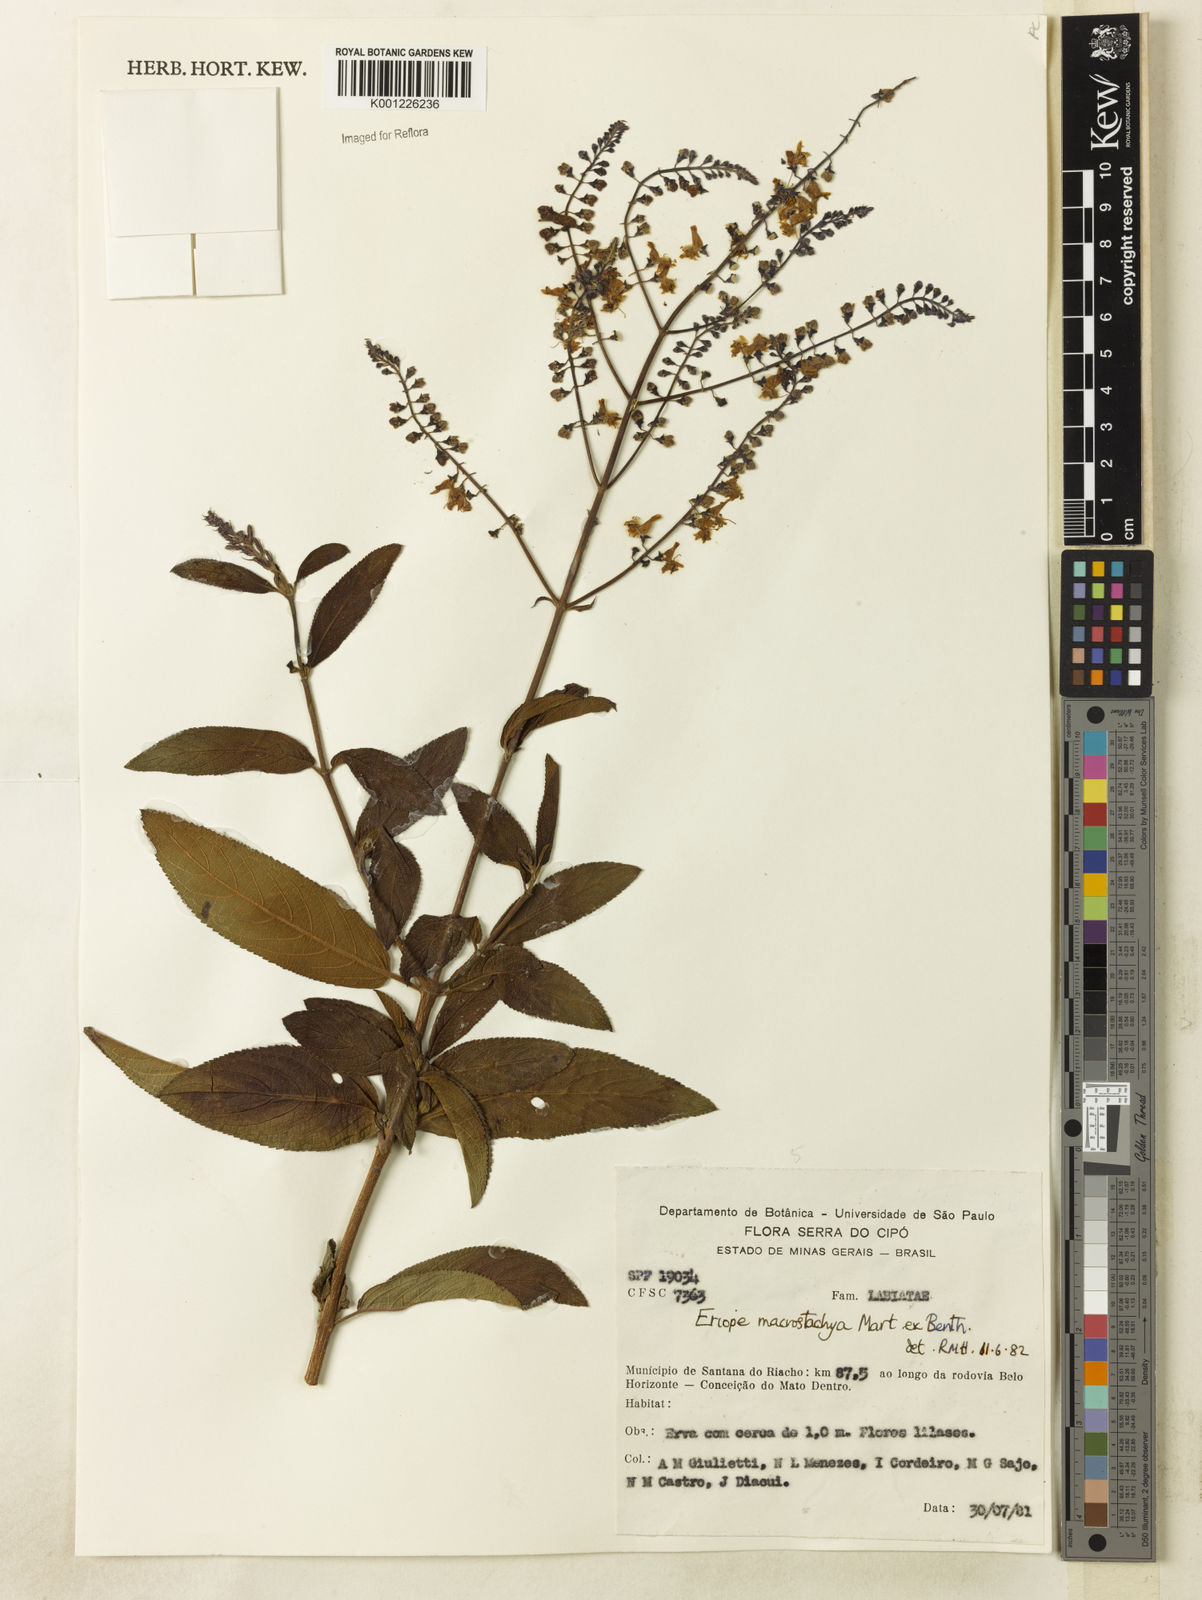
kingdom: Plantae
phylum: Tracheophyta
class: Magnoliopsida
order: Lamiales
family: Lamiaceae
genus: Eriope
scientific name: Eriope macrostachya
